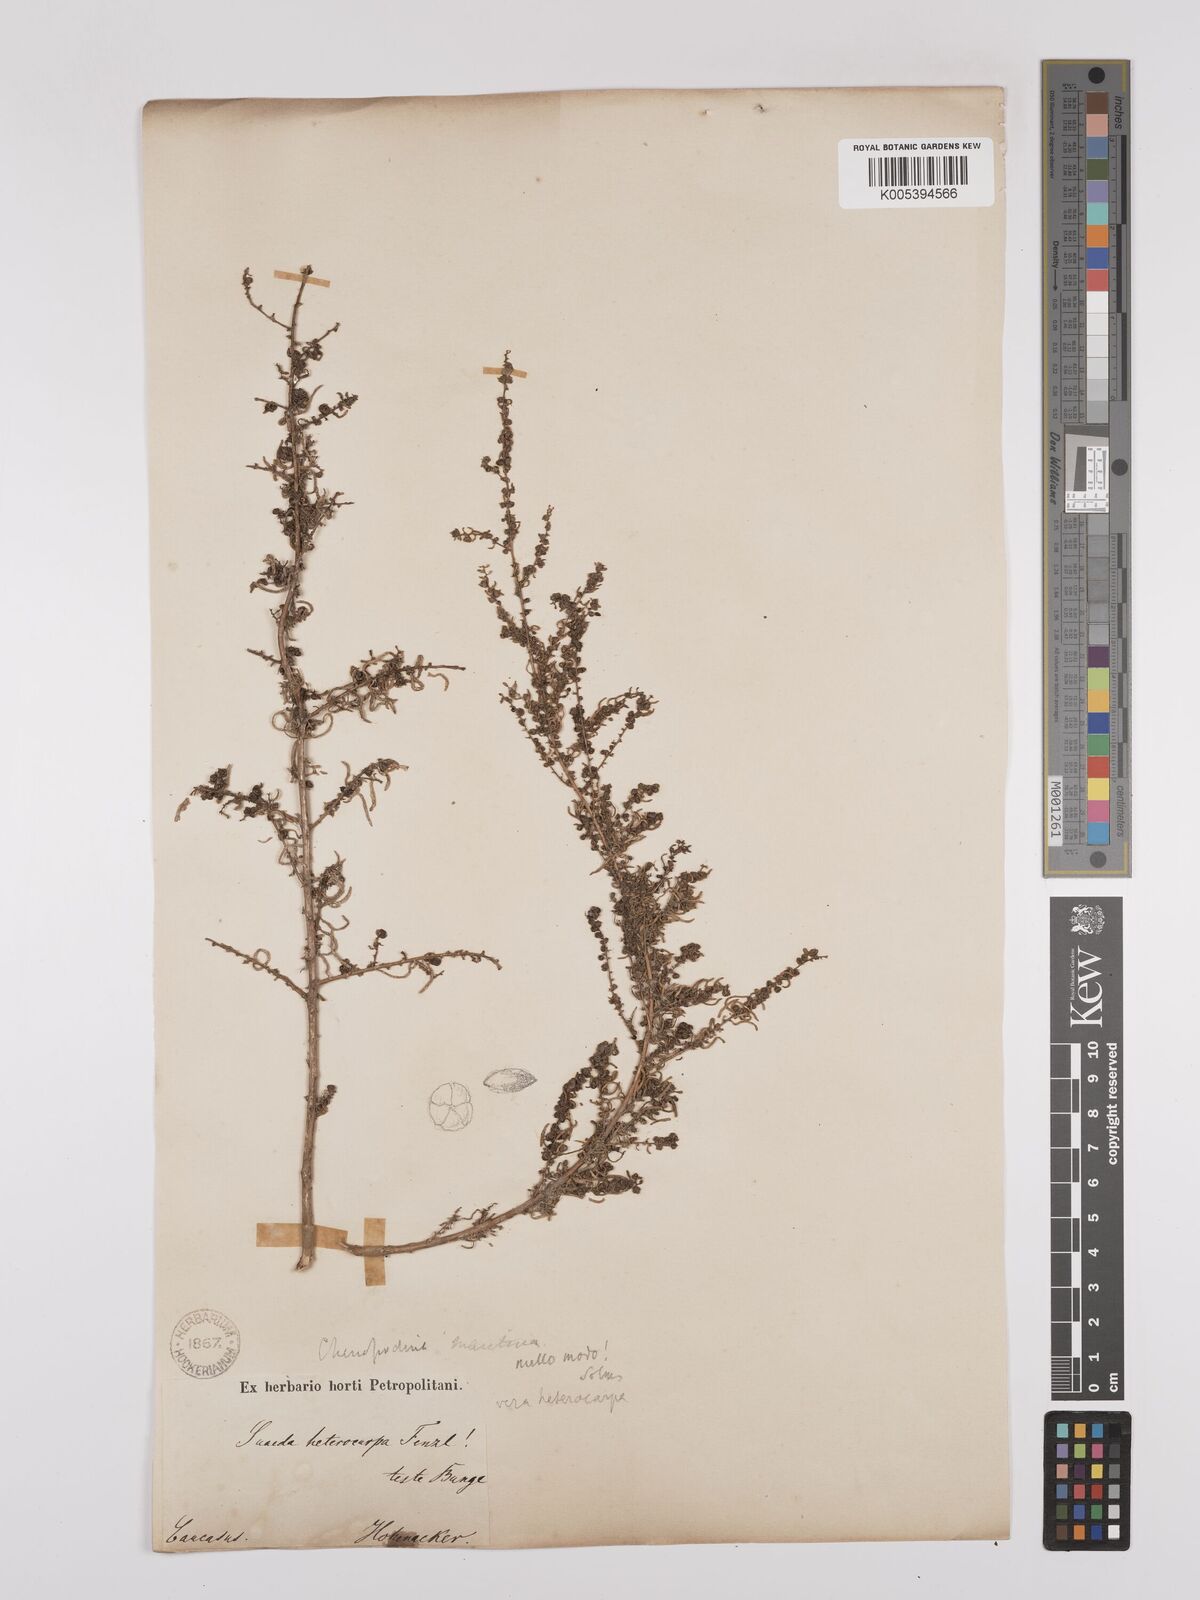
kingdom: Plantae
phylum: Tracheophyta
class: Magnoliopsida
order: Caryophyllales
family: Amaranthaceae
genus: Suaeda
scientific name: Suaeda
